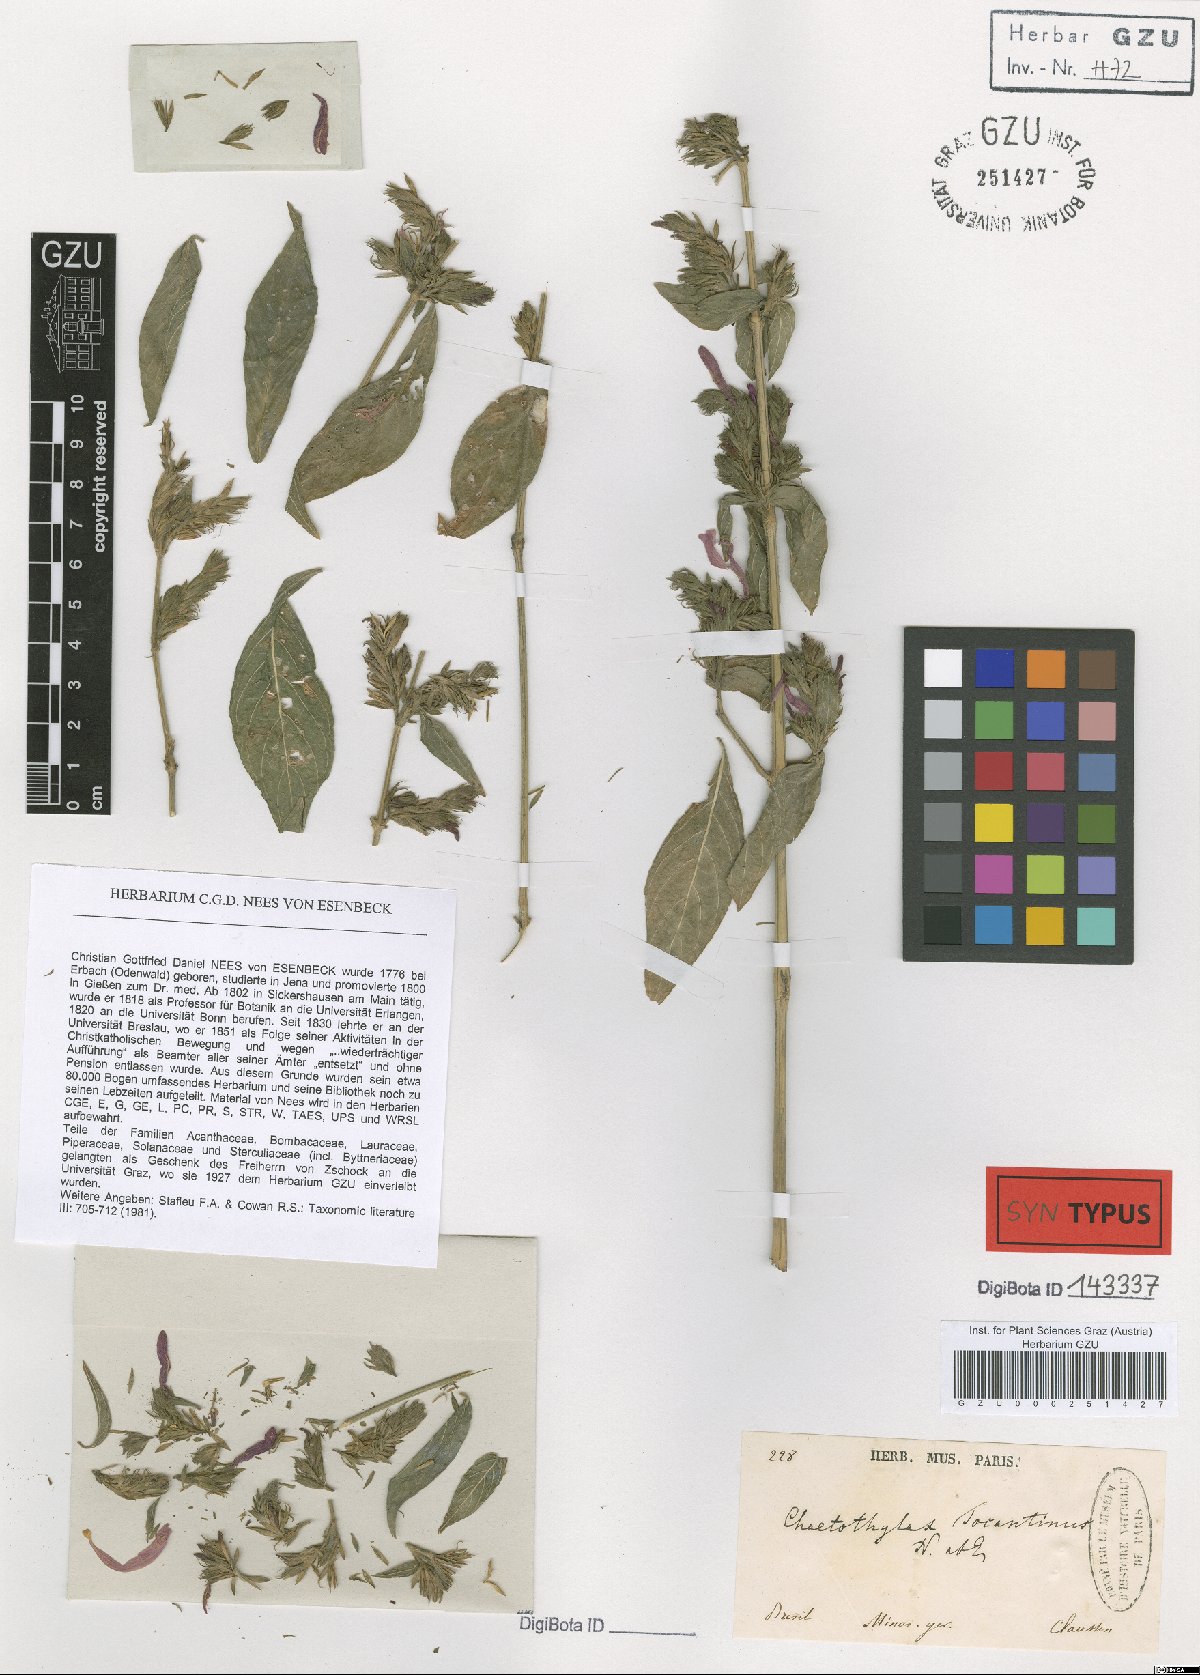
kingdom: Plantae
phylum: Tracheophyta
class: Magnoliopsida
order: Lamiales
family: Acanthaceae
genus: Justicia
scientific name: Justicia tocantina
